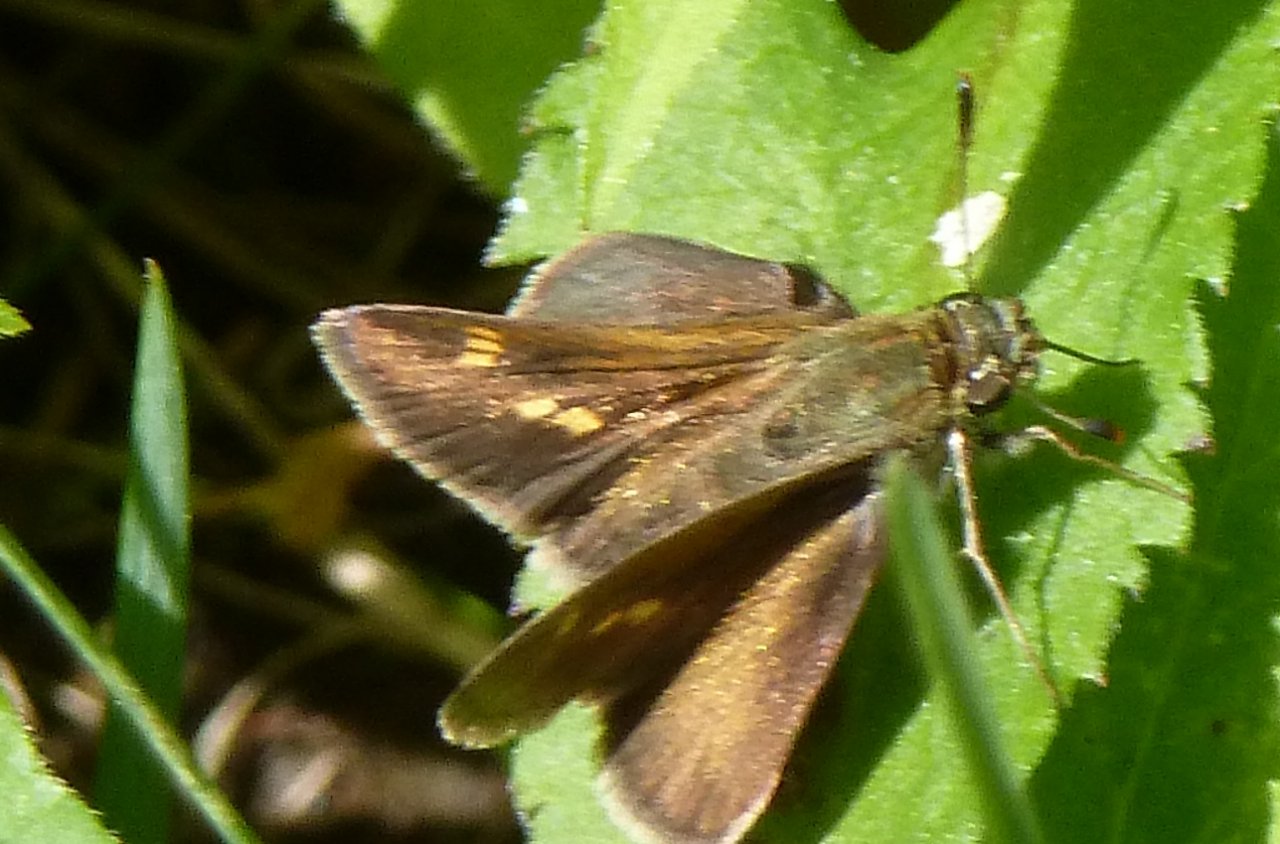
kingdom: Animalia
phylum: Arthropoda
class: Insecta
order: Lepidoptera
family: Hesperiidae
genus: Polites
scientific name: Polites egeremet
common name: Northern Broken-Dash
